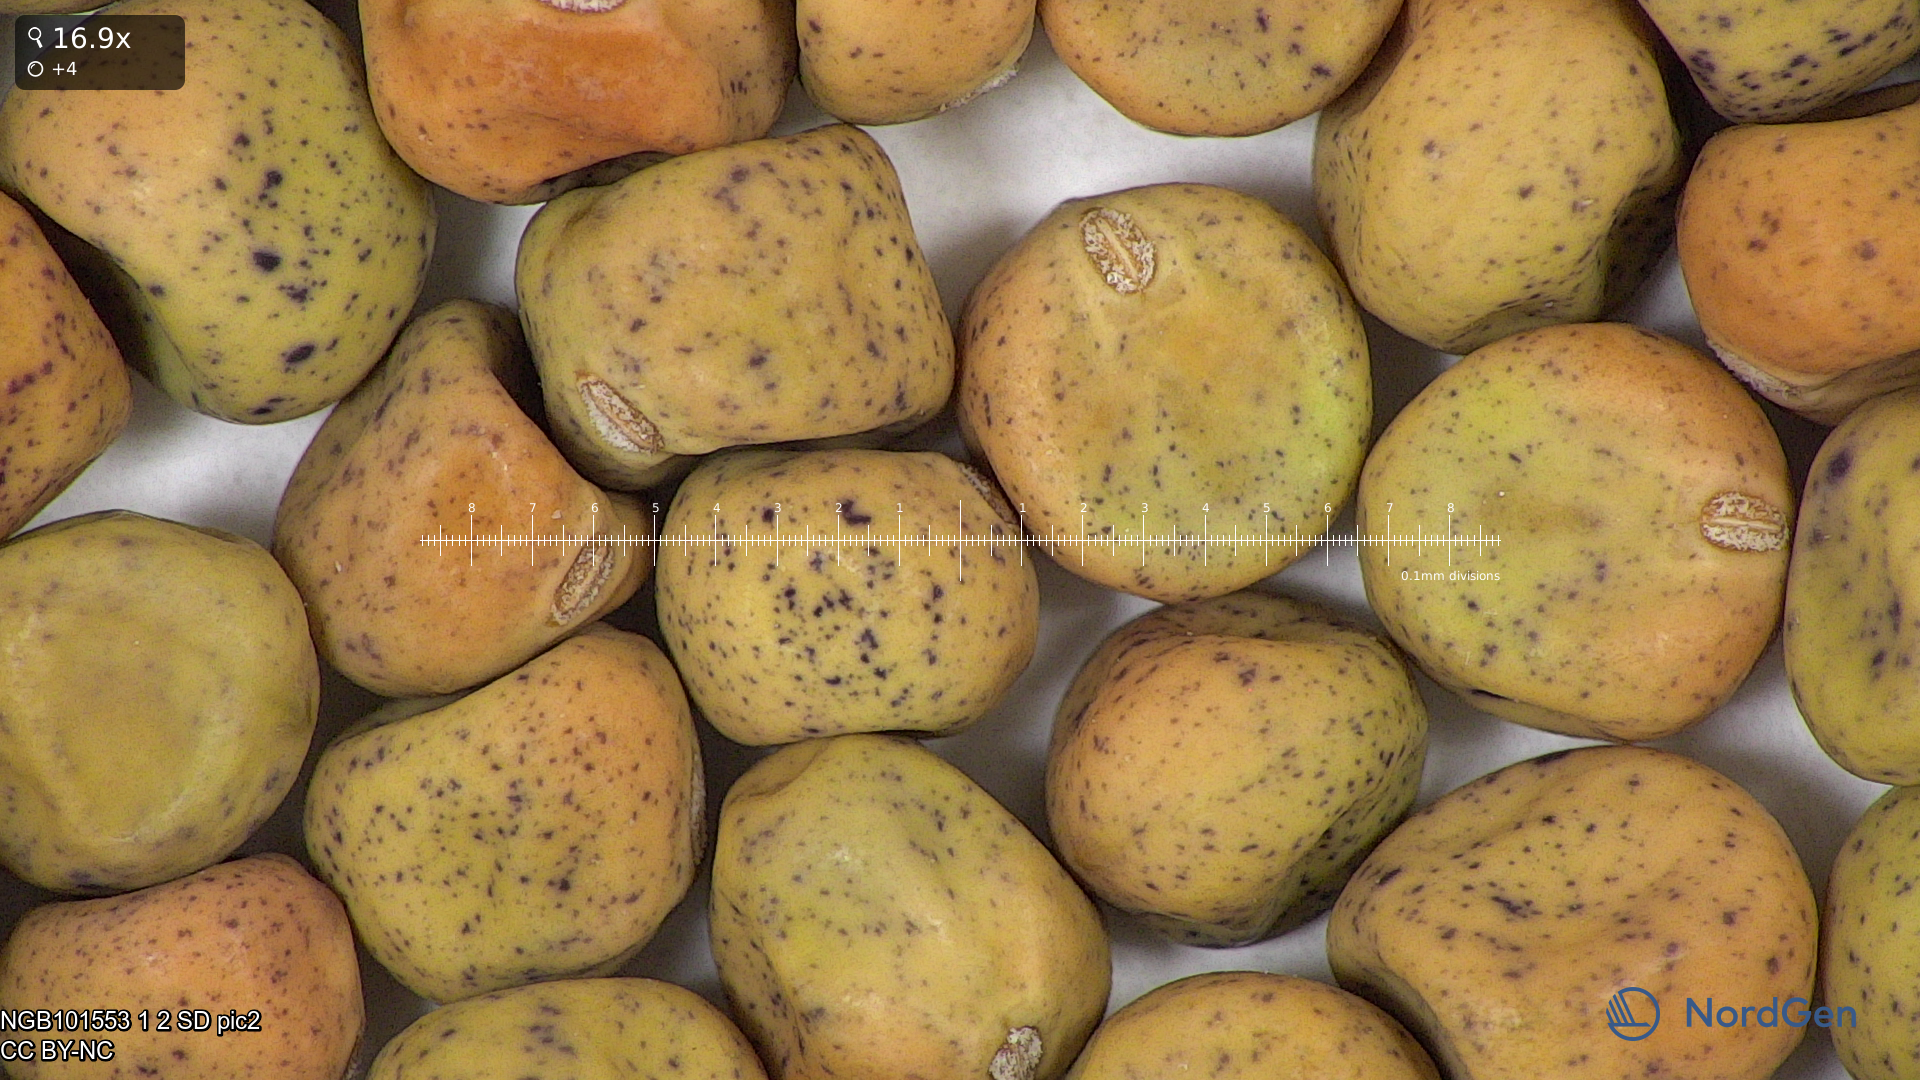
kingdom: Plantae
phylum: Tracheophyta
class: Magnoliopsida
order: Fabales
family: Fabaceae
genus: Lathyrus
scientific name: Lathyrus oleraceus
